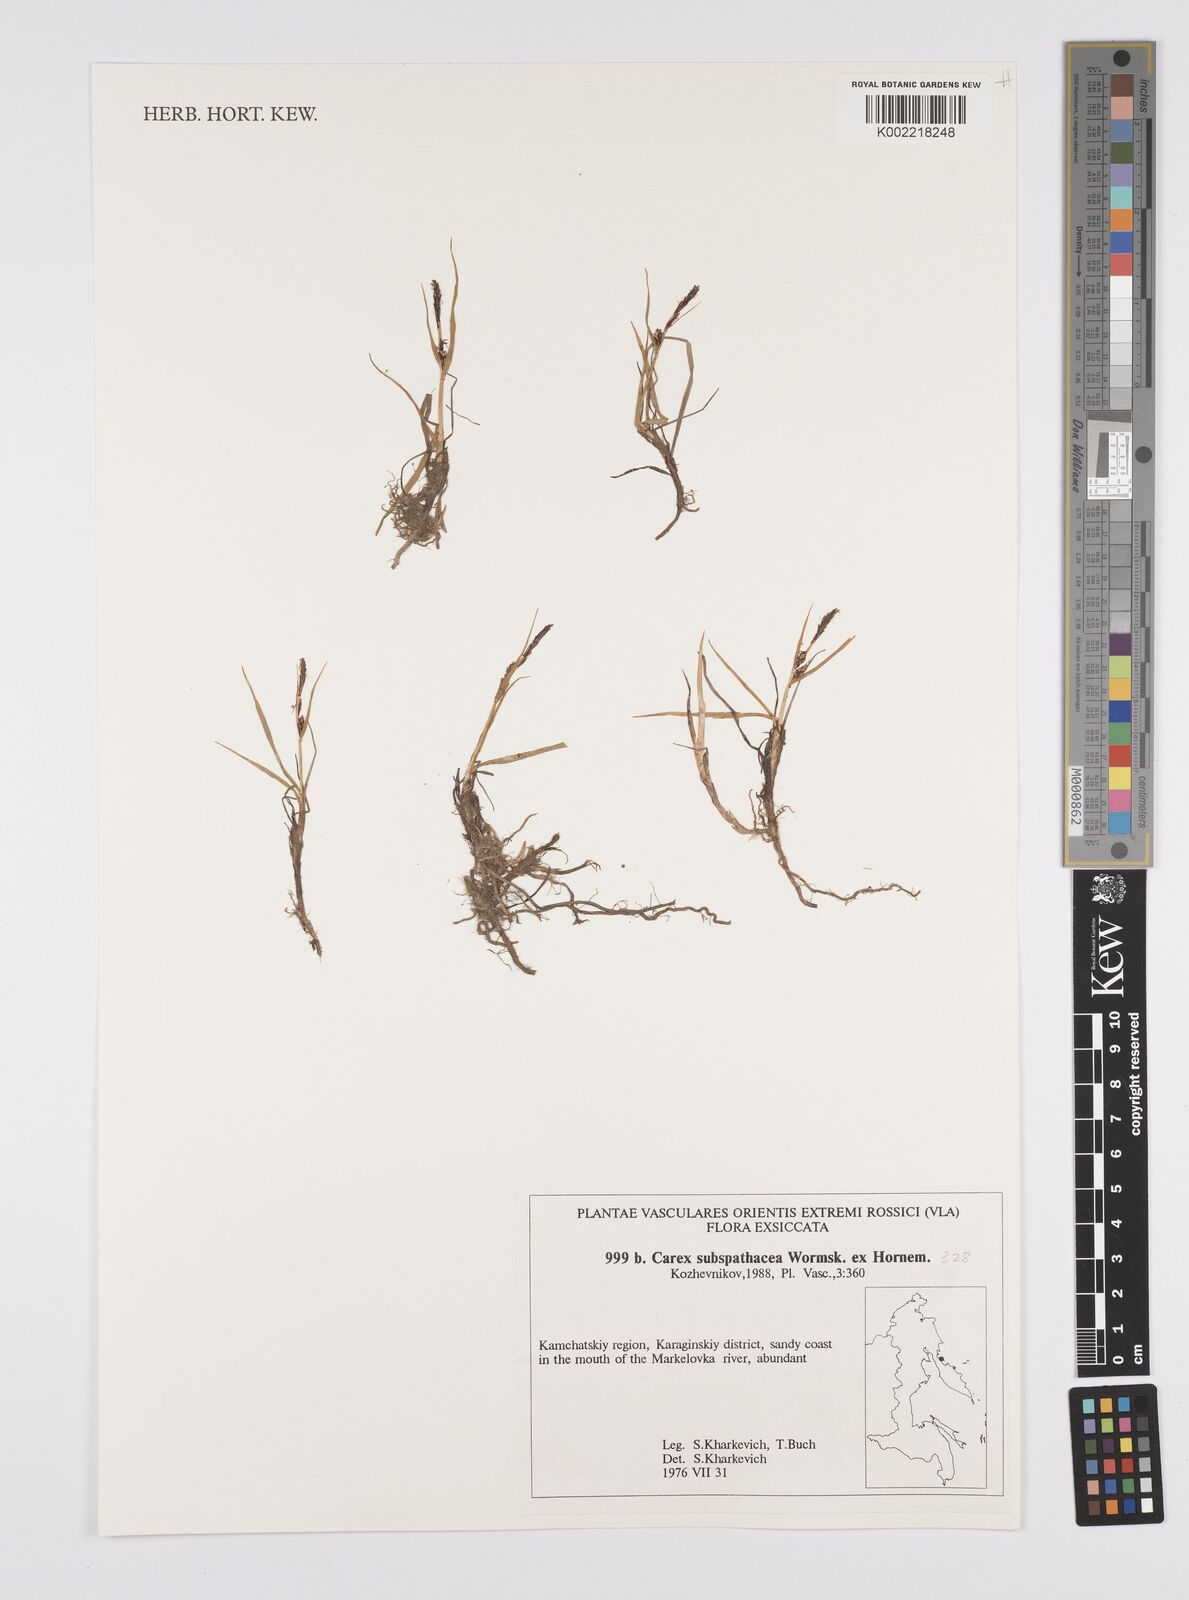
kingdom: Plantae
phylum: Tracheophyta
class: Liliopsida
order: Poales
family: Cyperaceae
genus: Carex
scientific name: Carex subspathacea
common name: Hoppner's sedge
